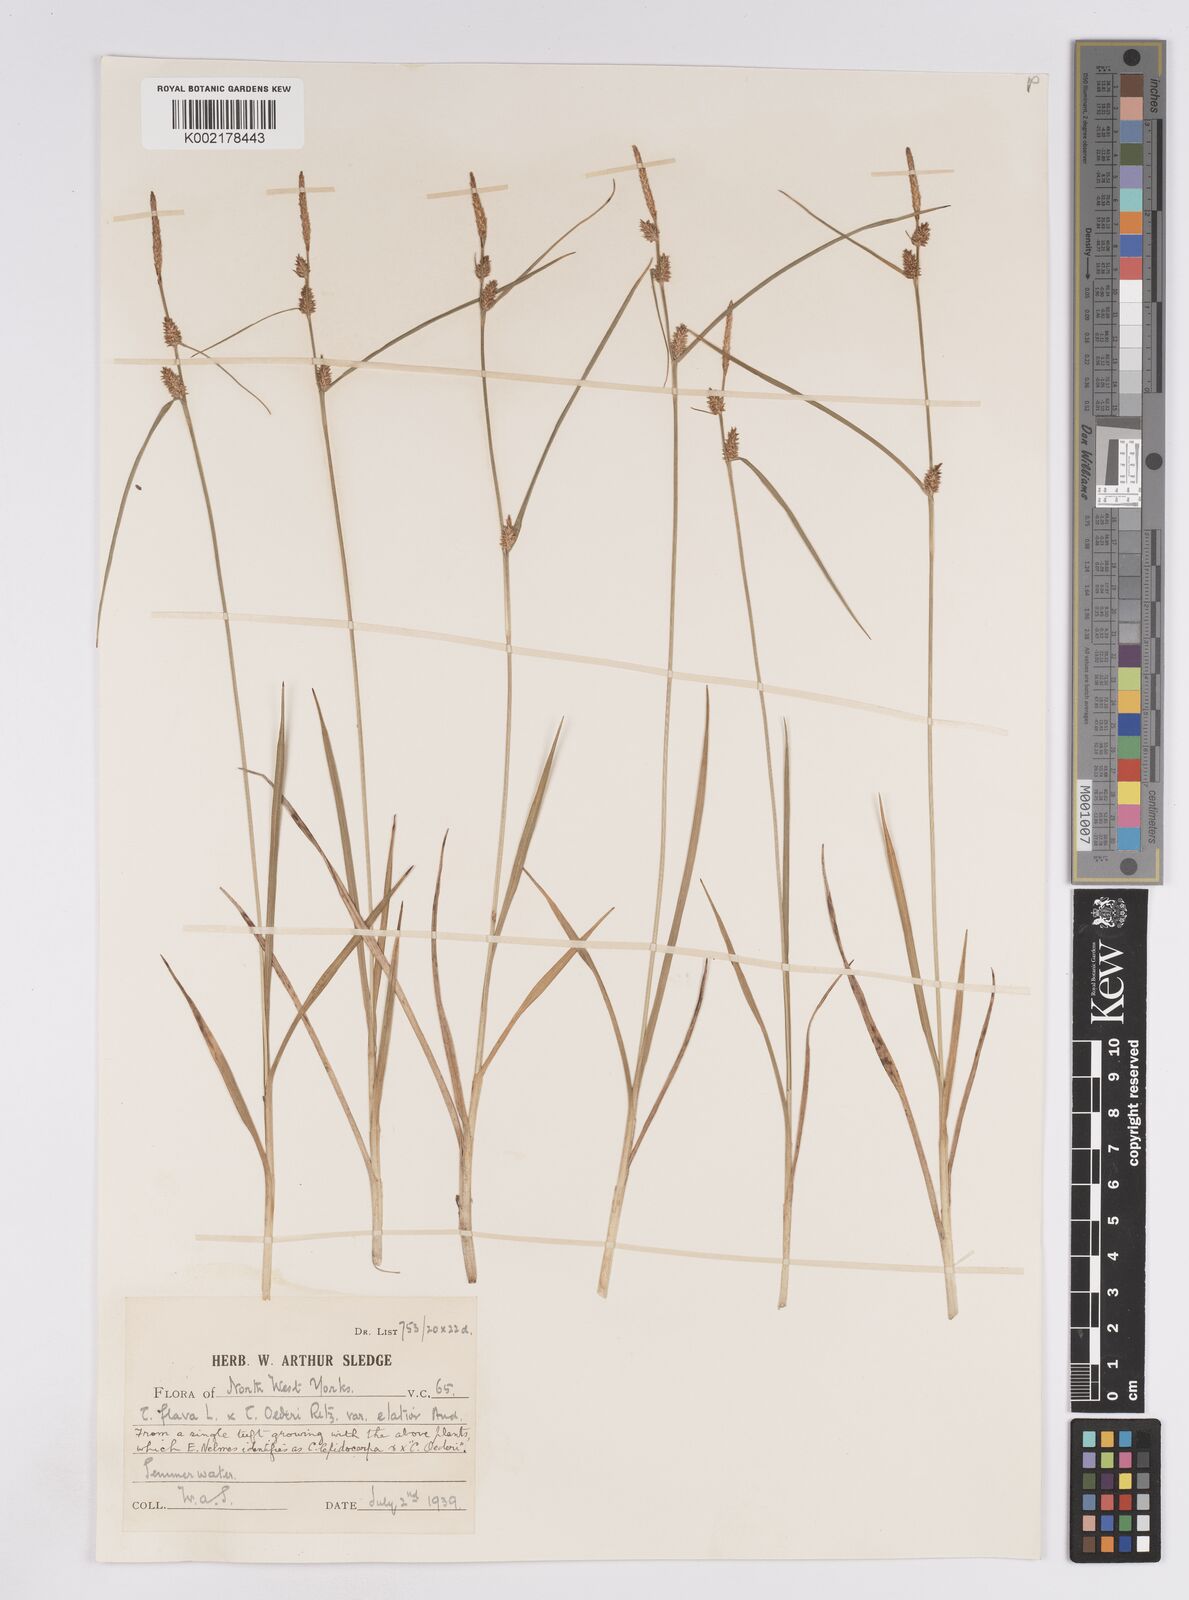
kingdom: Plantae
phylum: Tracheophyta
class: Liliopsida
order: Poales
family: Cyperaceae
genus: Carex
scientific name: Carex lepidocarpa
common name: Long-stalked yellow-sedge
